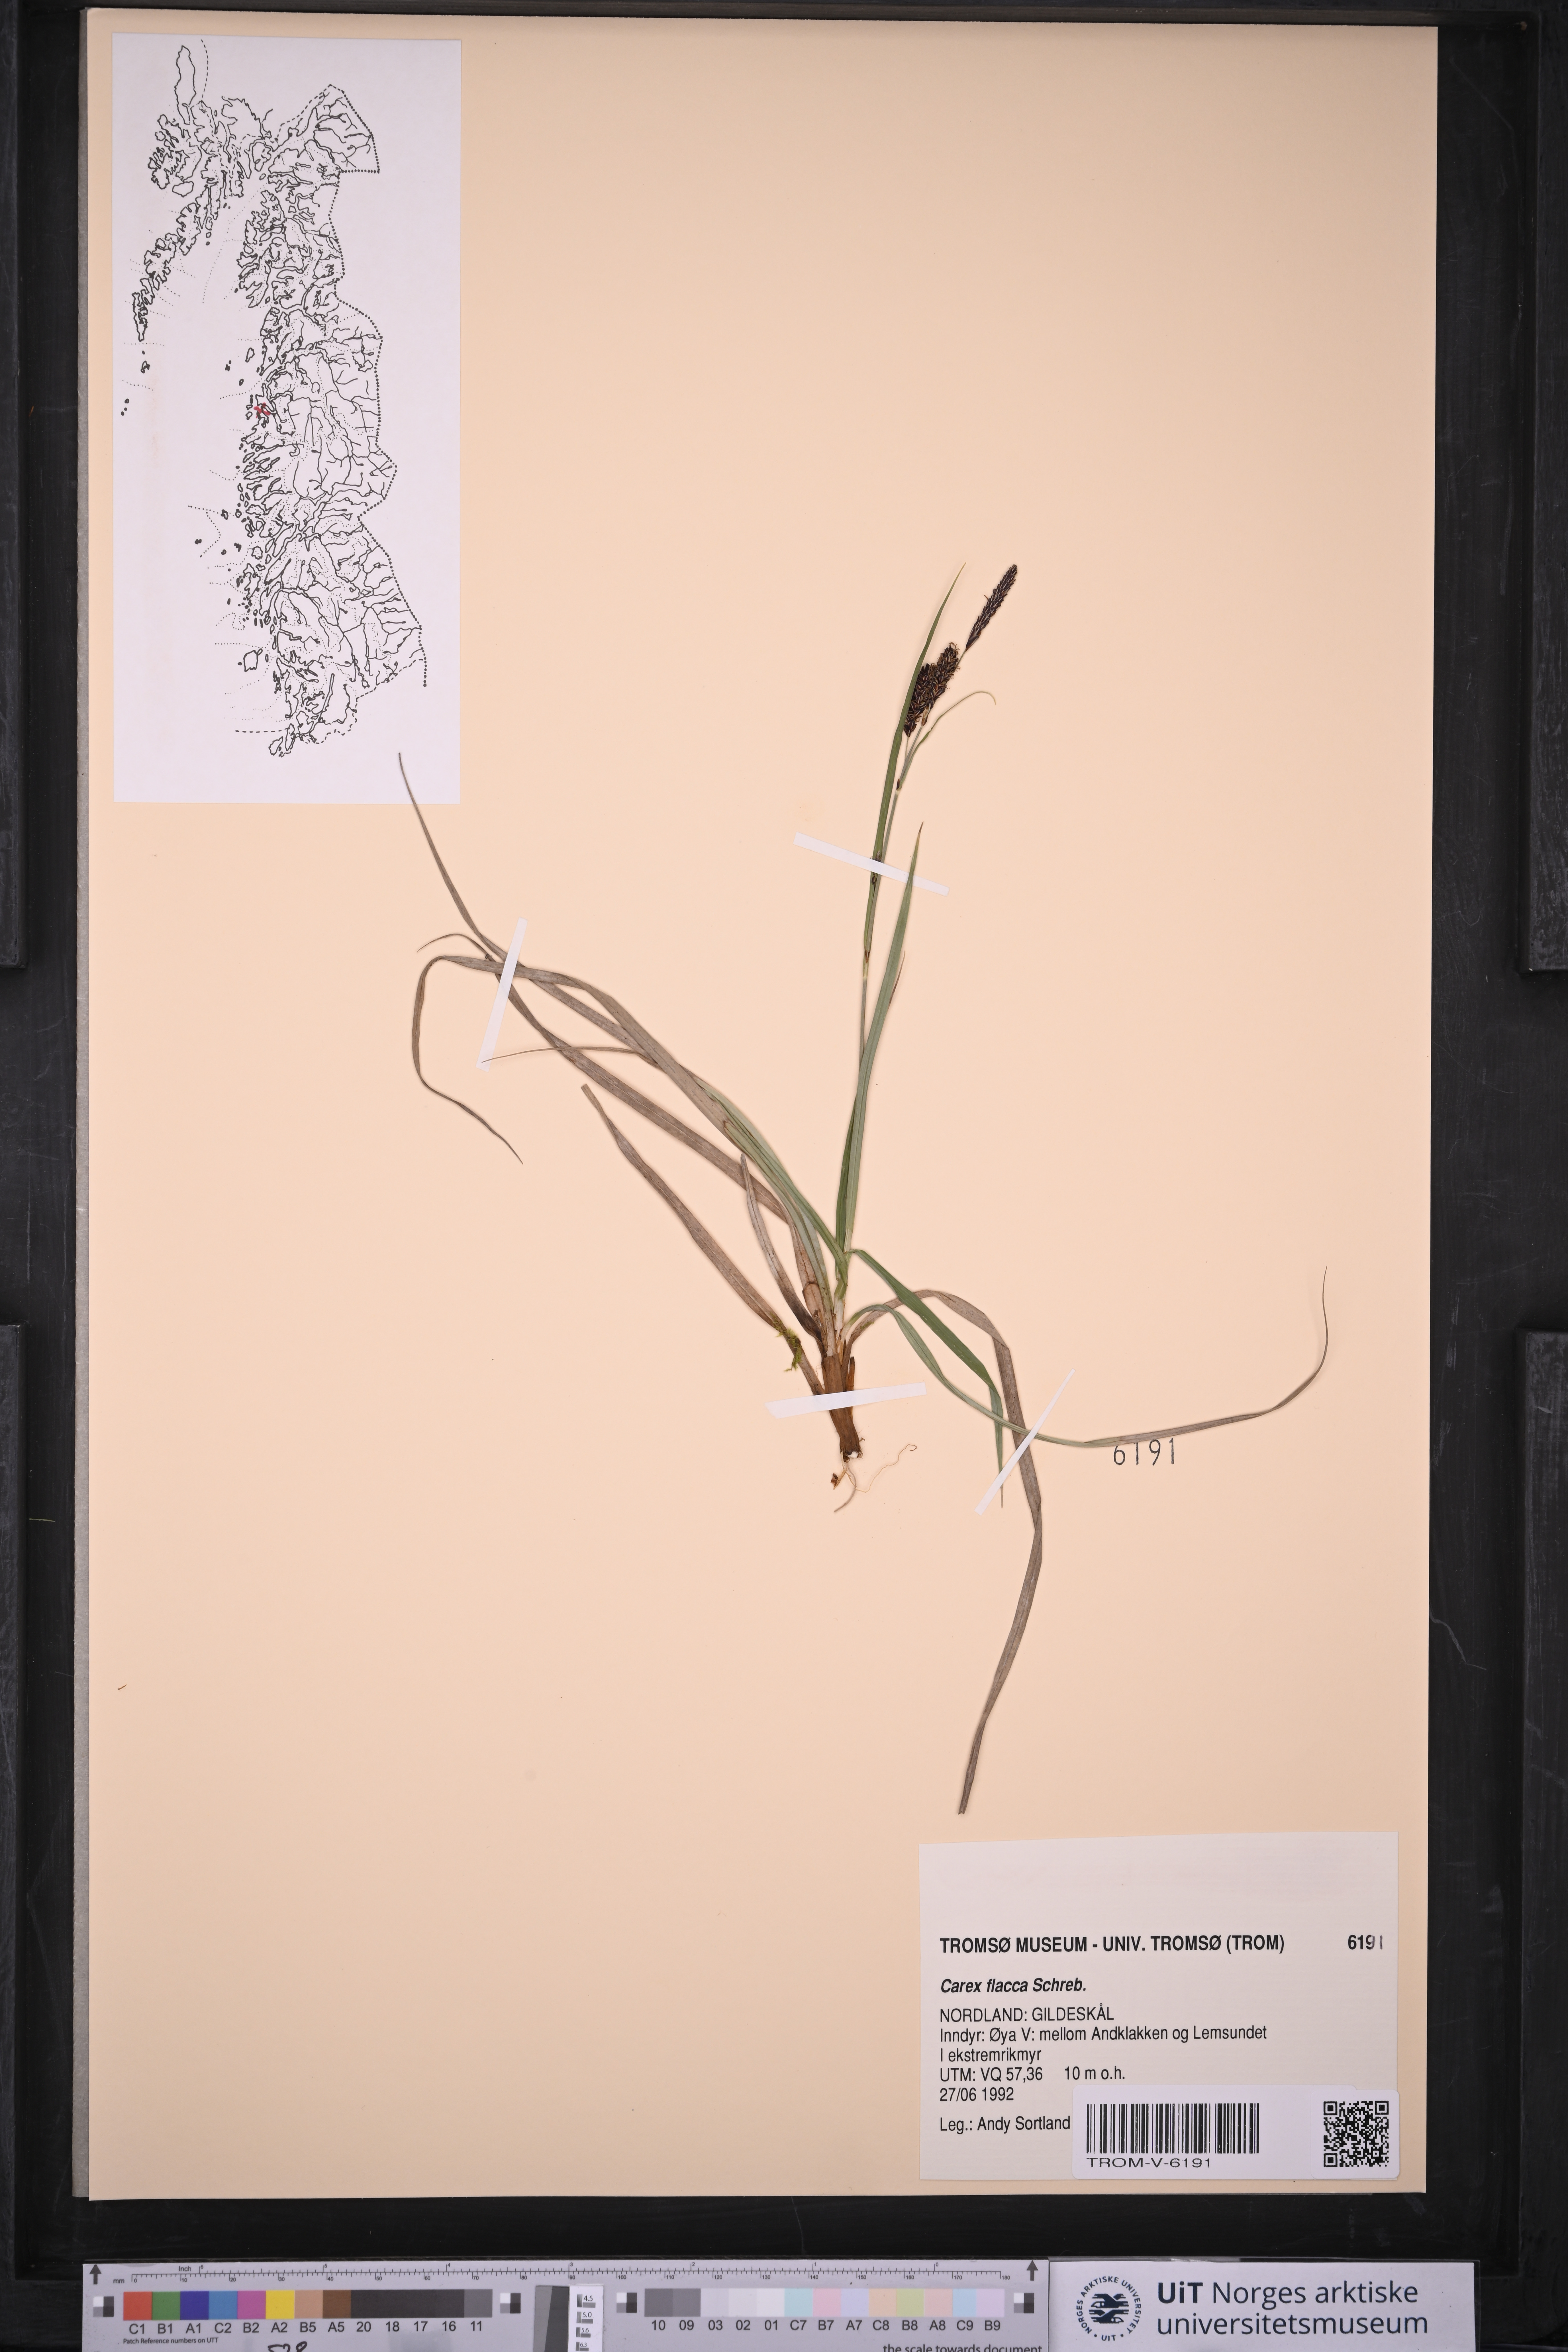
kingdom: Plantae
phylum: Tracheophyta
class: Liliopsida
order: Poales
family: Cyperaceae
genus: Carex
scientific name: Carex flacca
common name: Glaucous sedge
